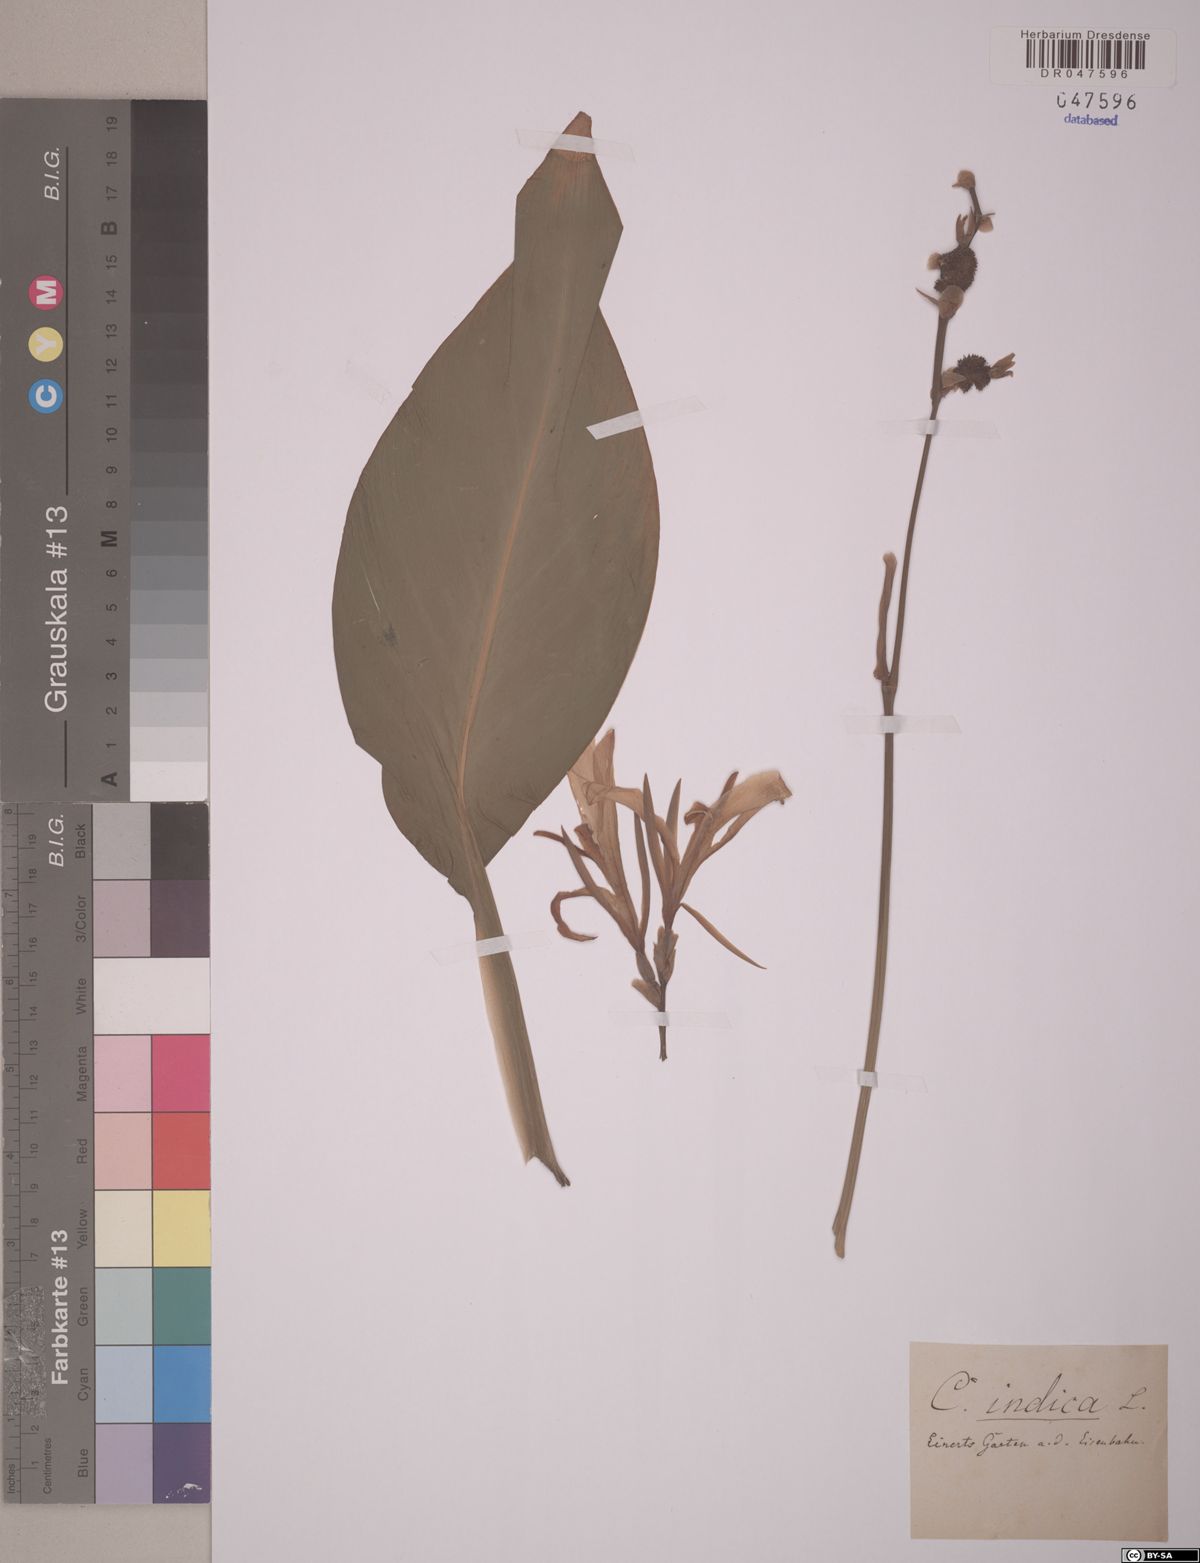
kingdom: Plantae
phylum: Tracheophyta
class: Liliopsida
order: Zingiberales
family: Cannaceae
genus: Canna
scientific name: Canna indica
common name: Indian shot
